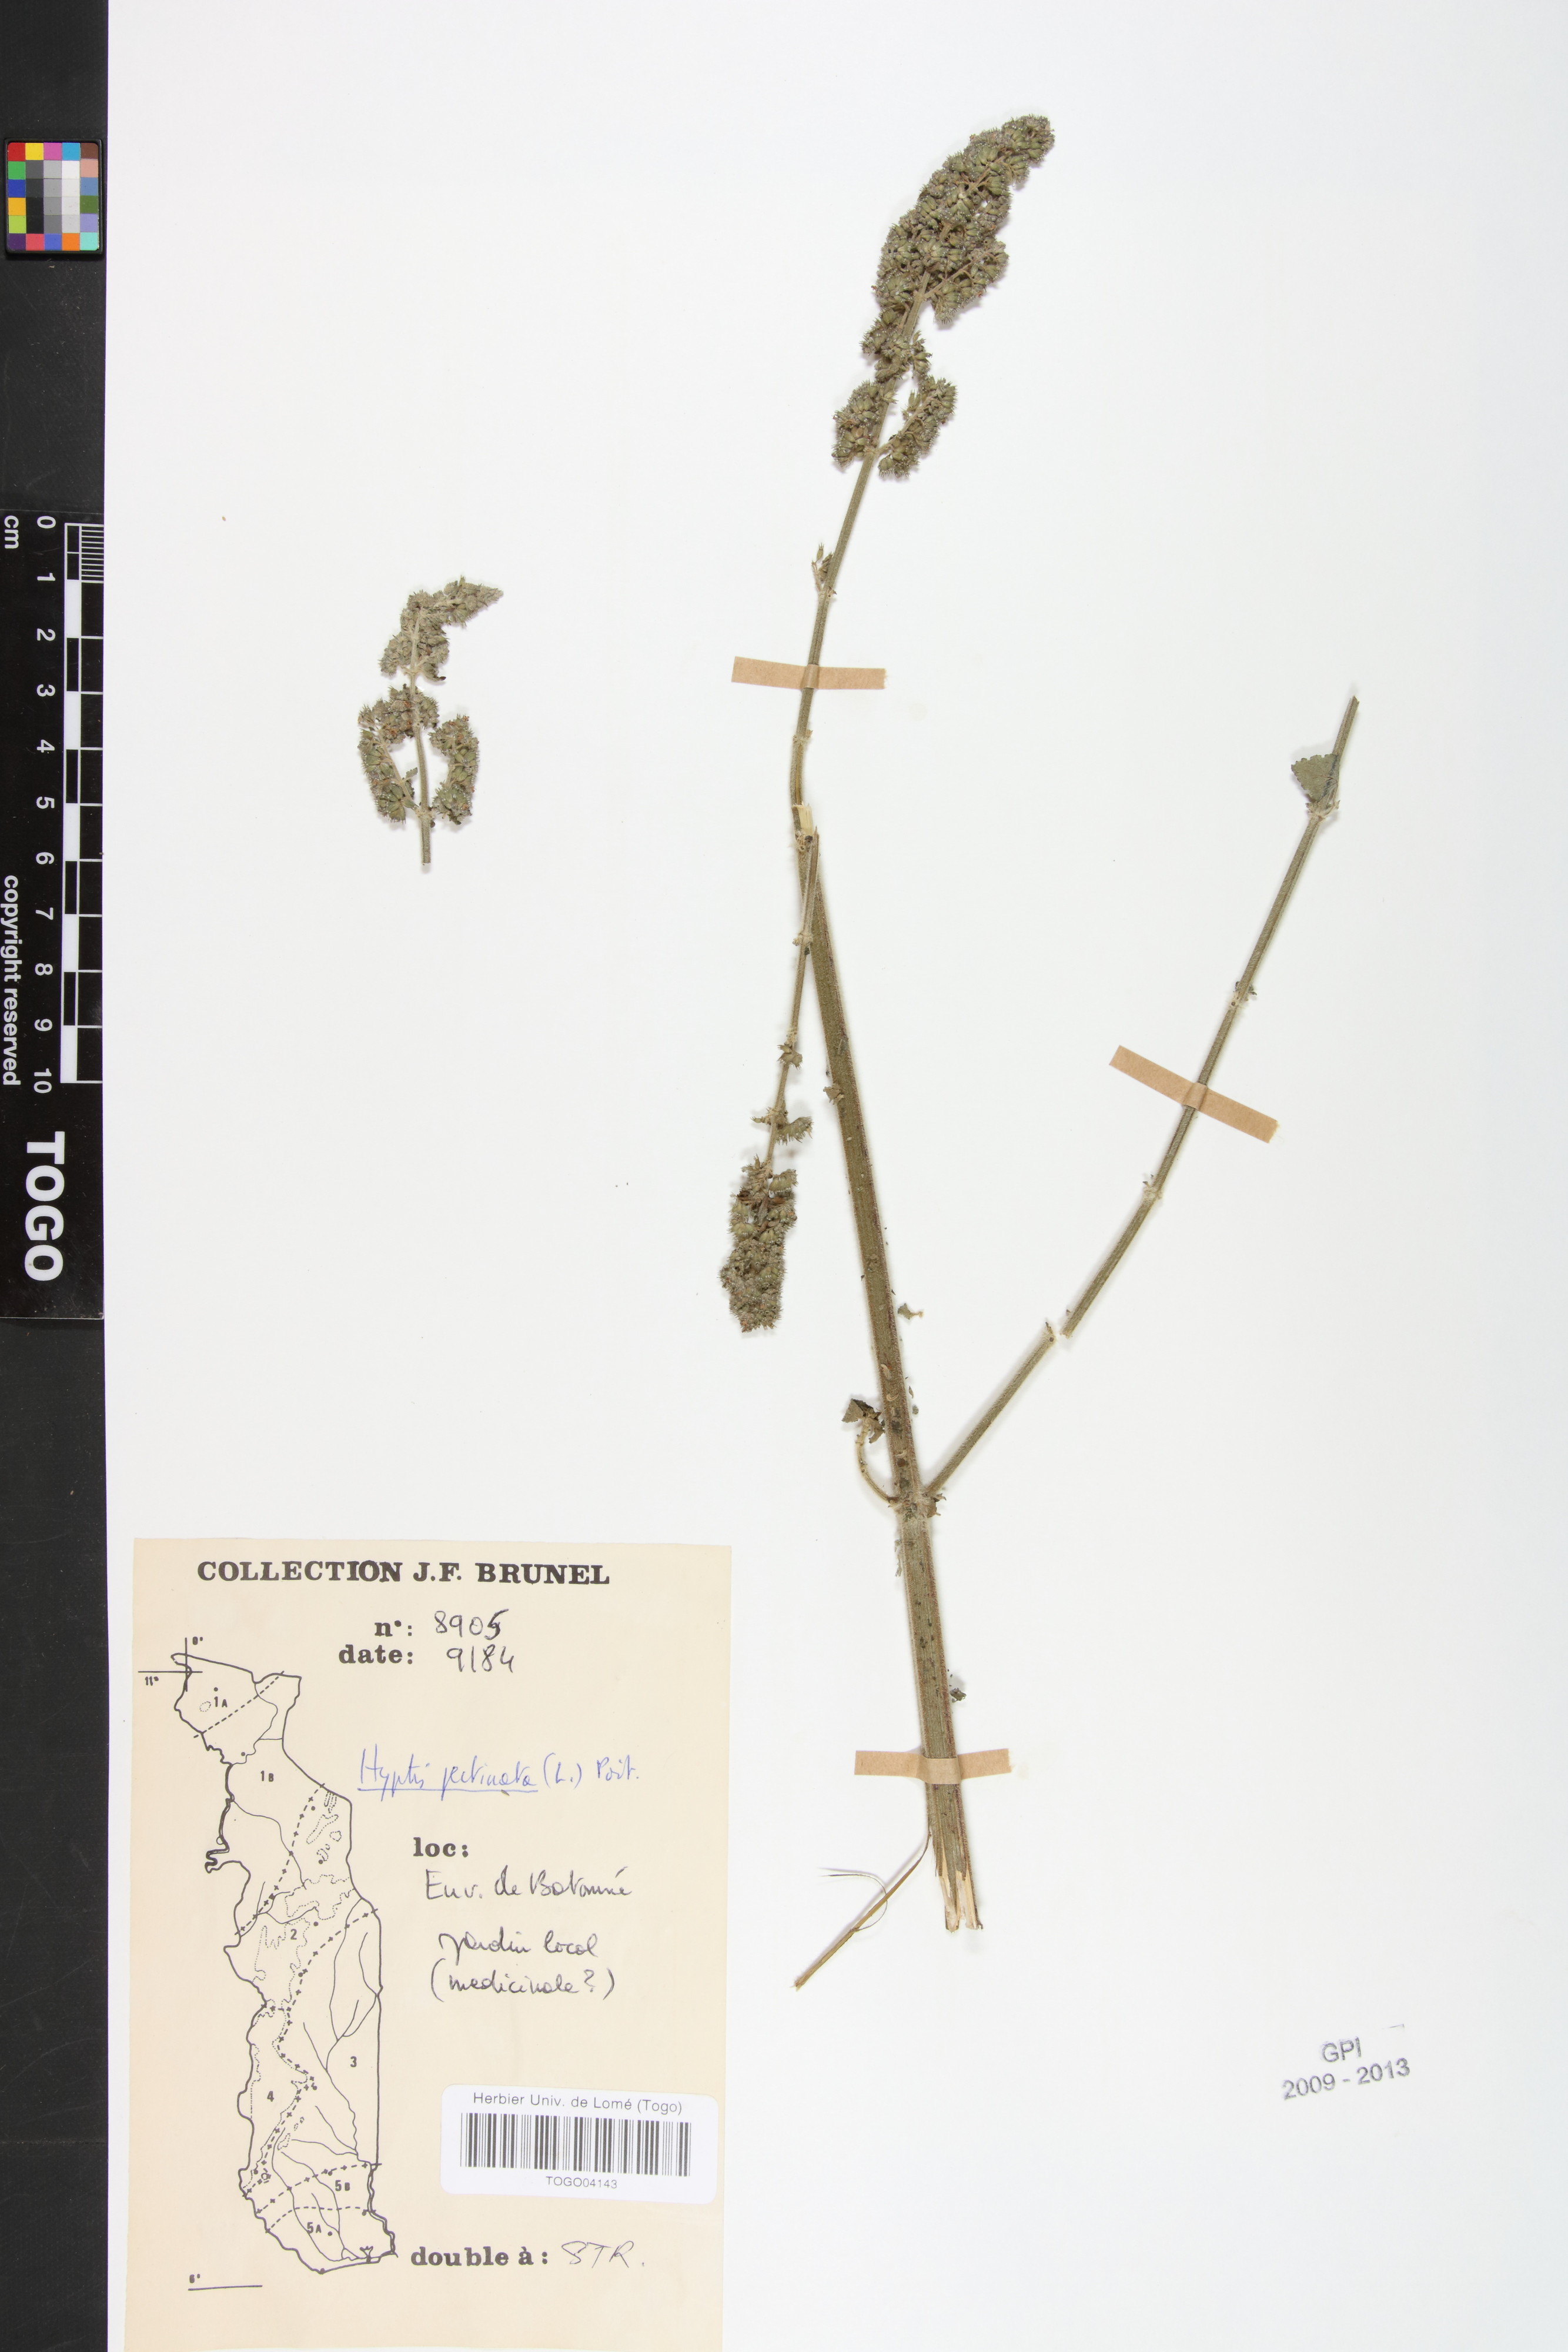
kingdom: Plantae
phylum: Tracheophyta
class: Magnoliopsida
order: Lamiales
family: Lamiaceae
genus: Mesosphaerum
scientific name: Mesosphaerum pectinatum
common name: Comb hyptis
